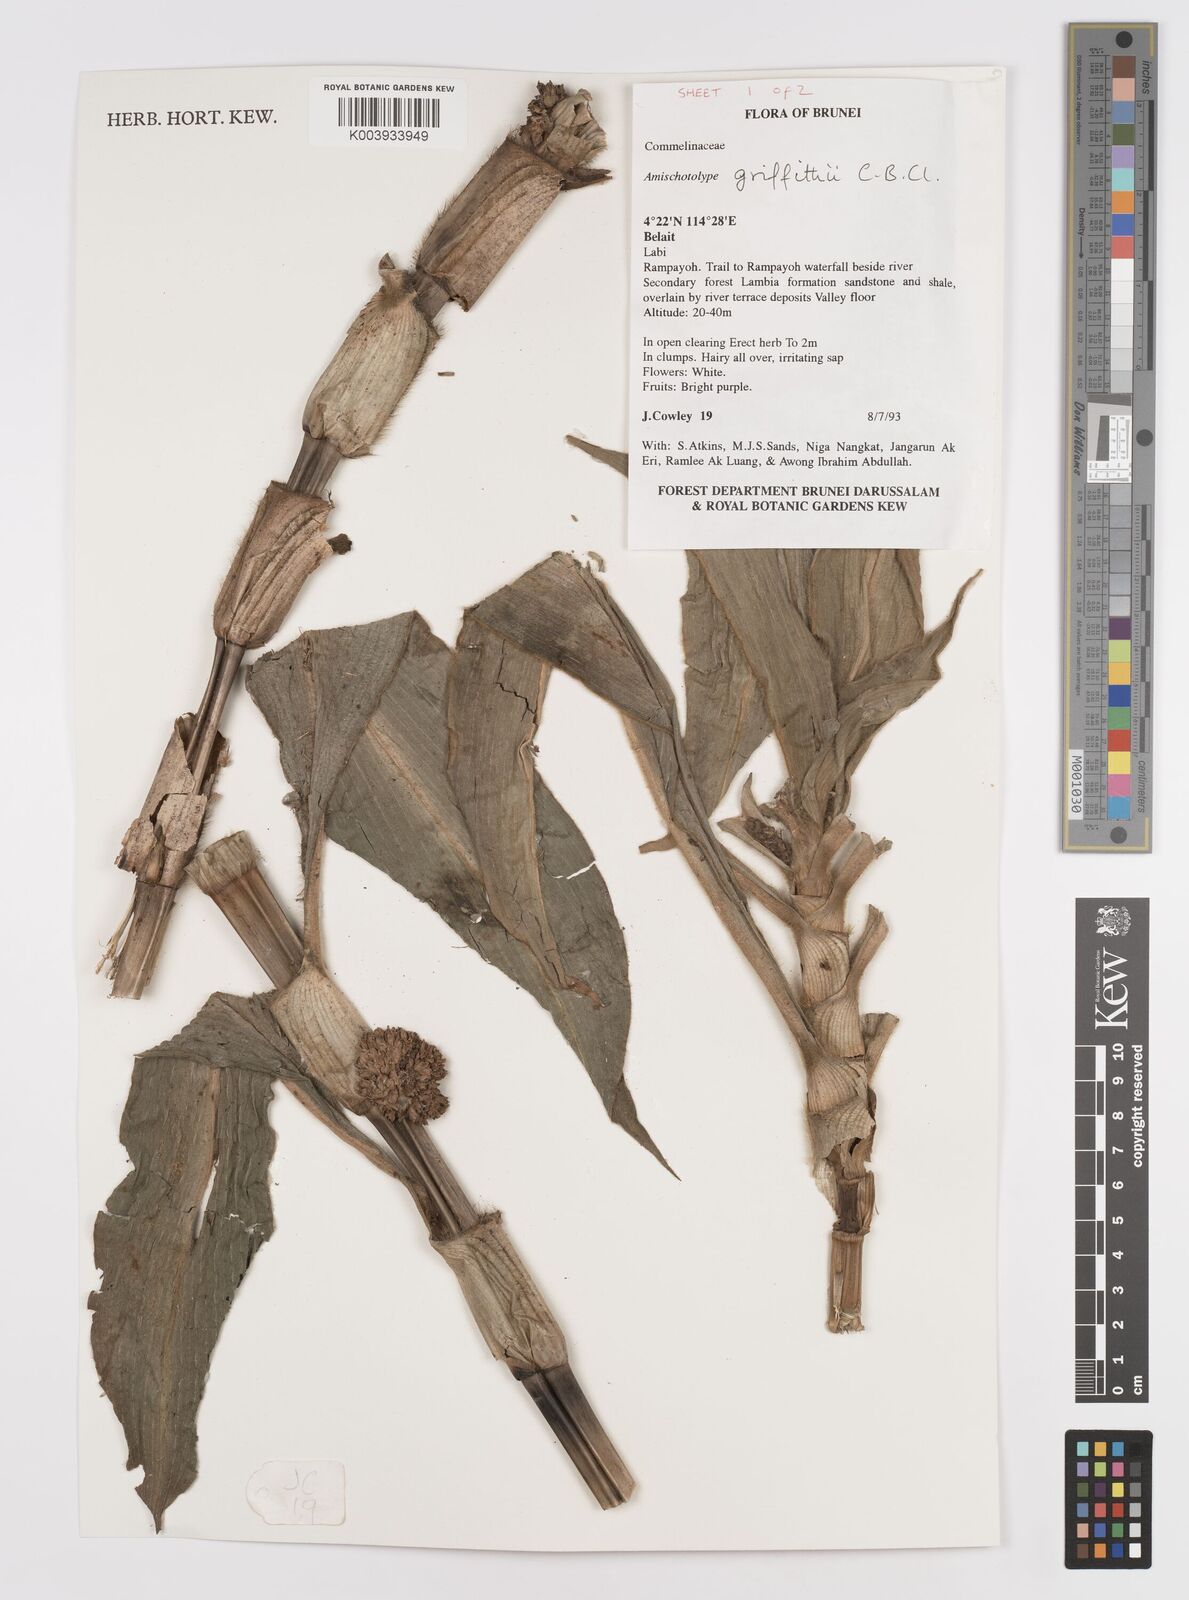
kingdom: Plantae
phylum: Tracheophyta
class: Liliopsida
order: Commelinales
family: Commelinaceae
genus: Amischotolype
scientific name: Amischotolype griffithii
